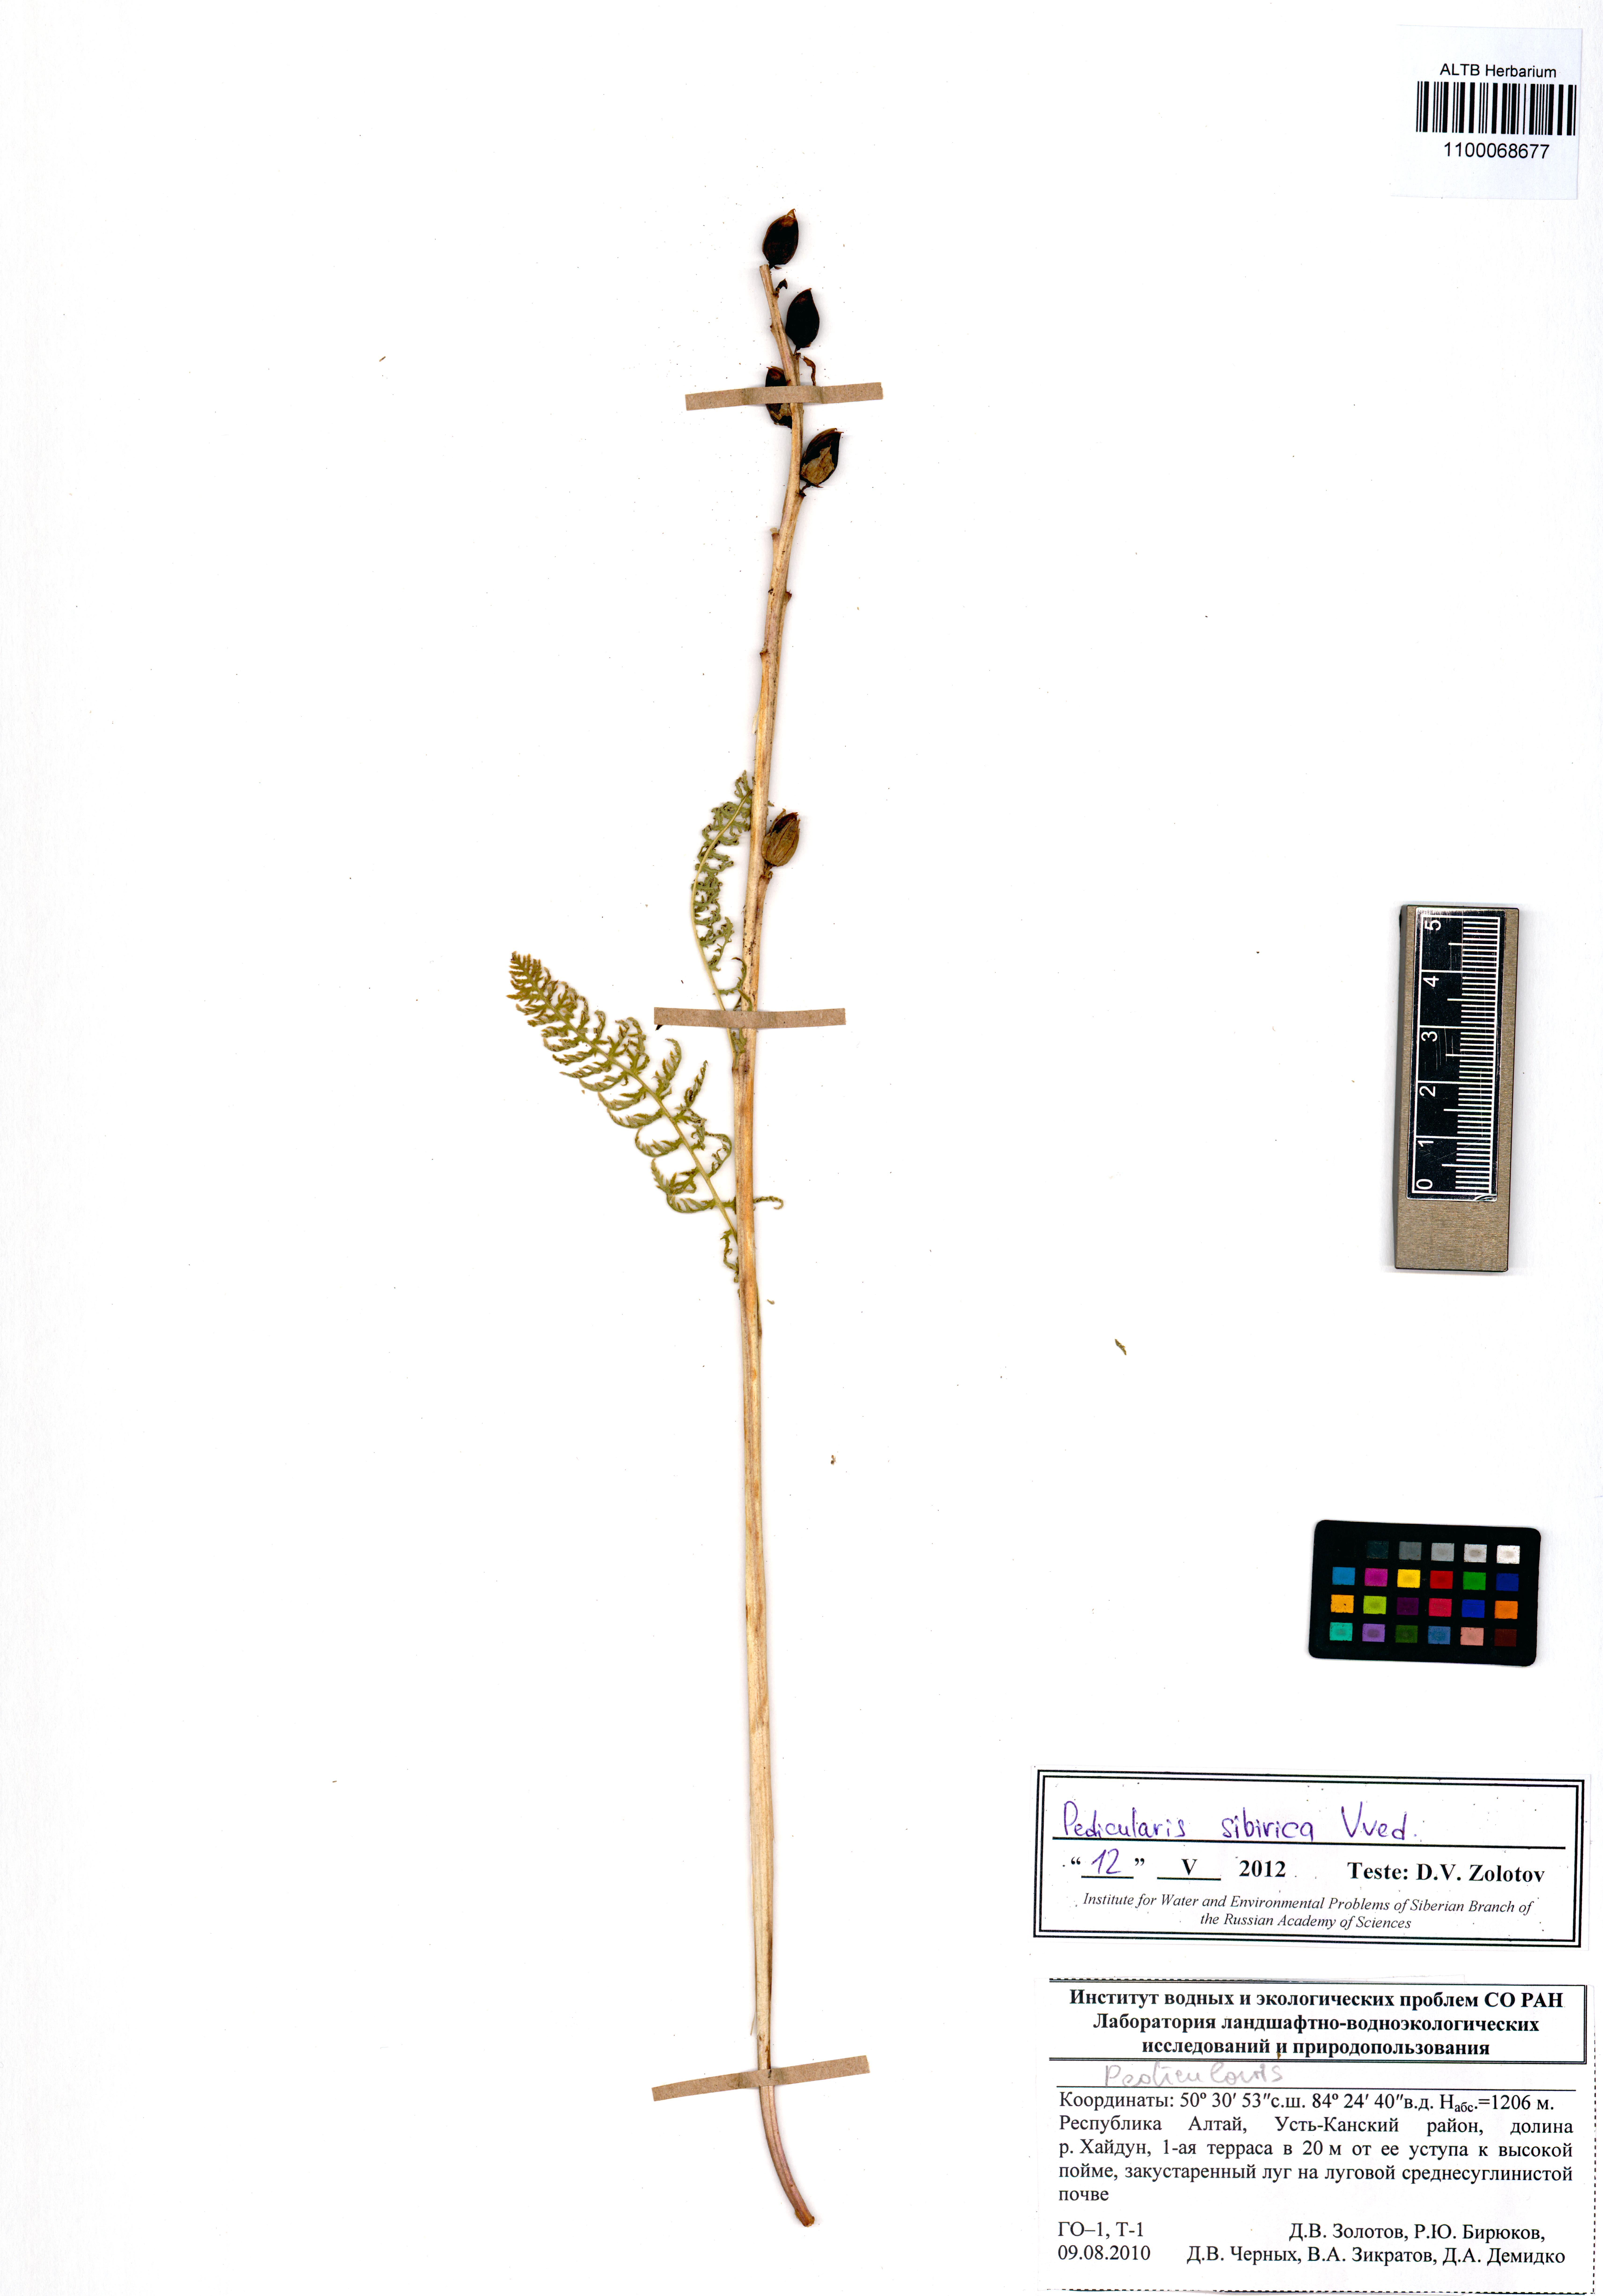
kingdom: Plantae
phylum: Tracheophyta
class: Magnoliopsida
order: Lamiales
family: Orobanchaceae
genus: Pedicularis
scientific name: Pedicularis sibirica
